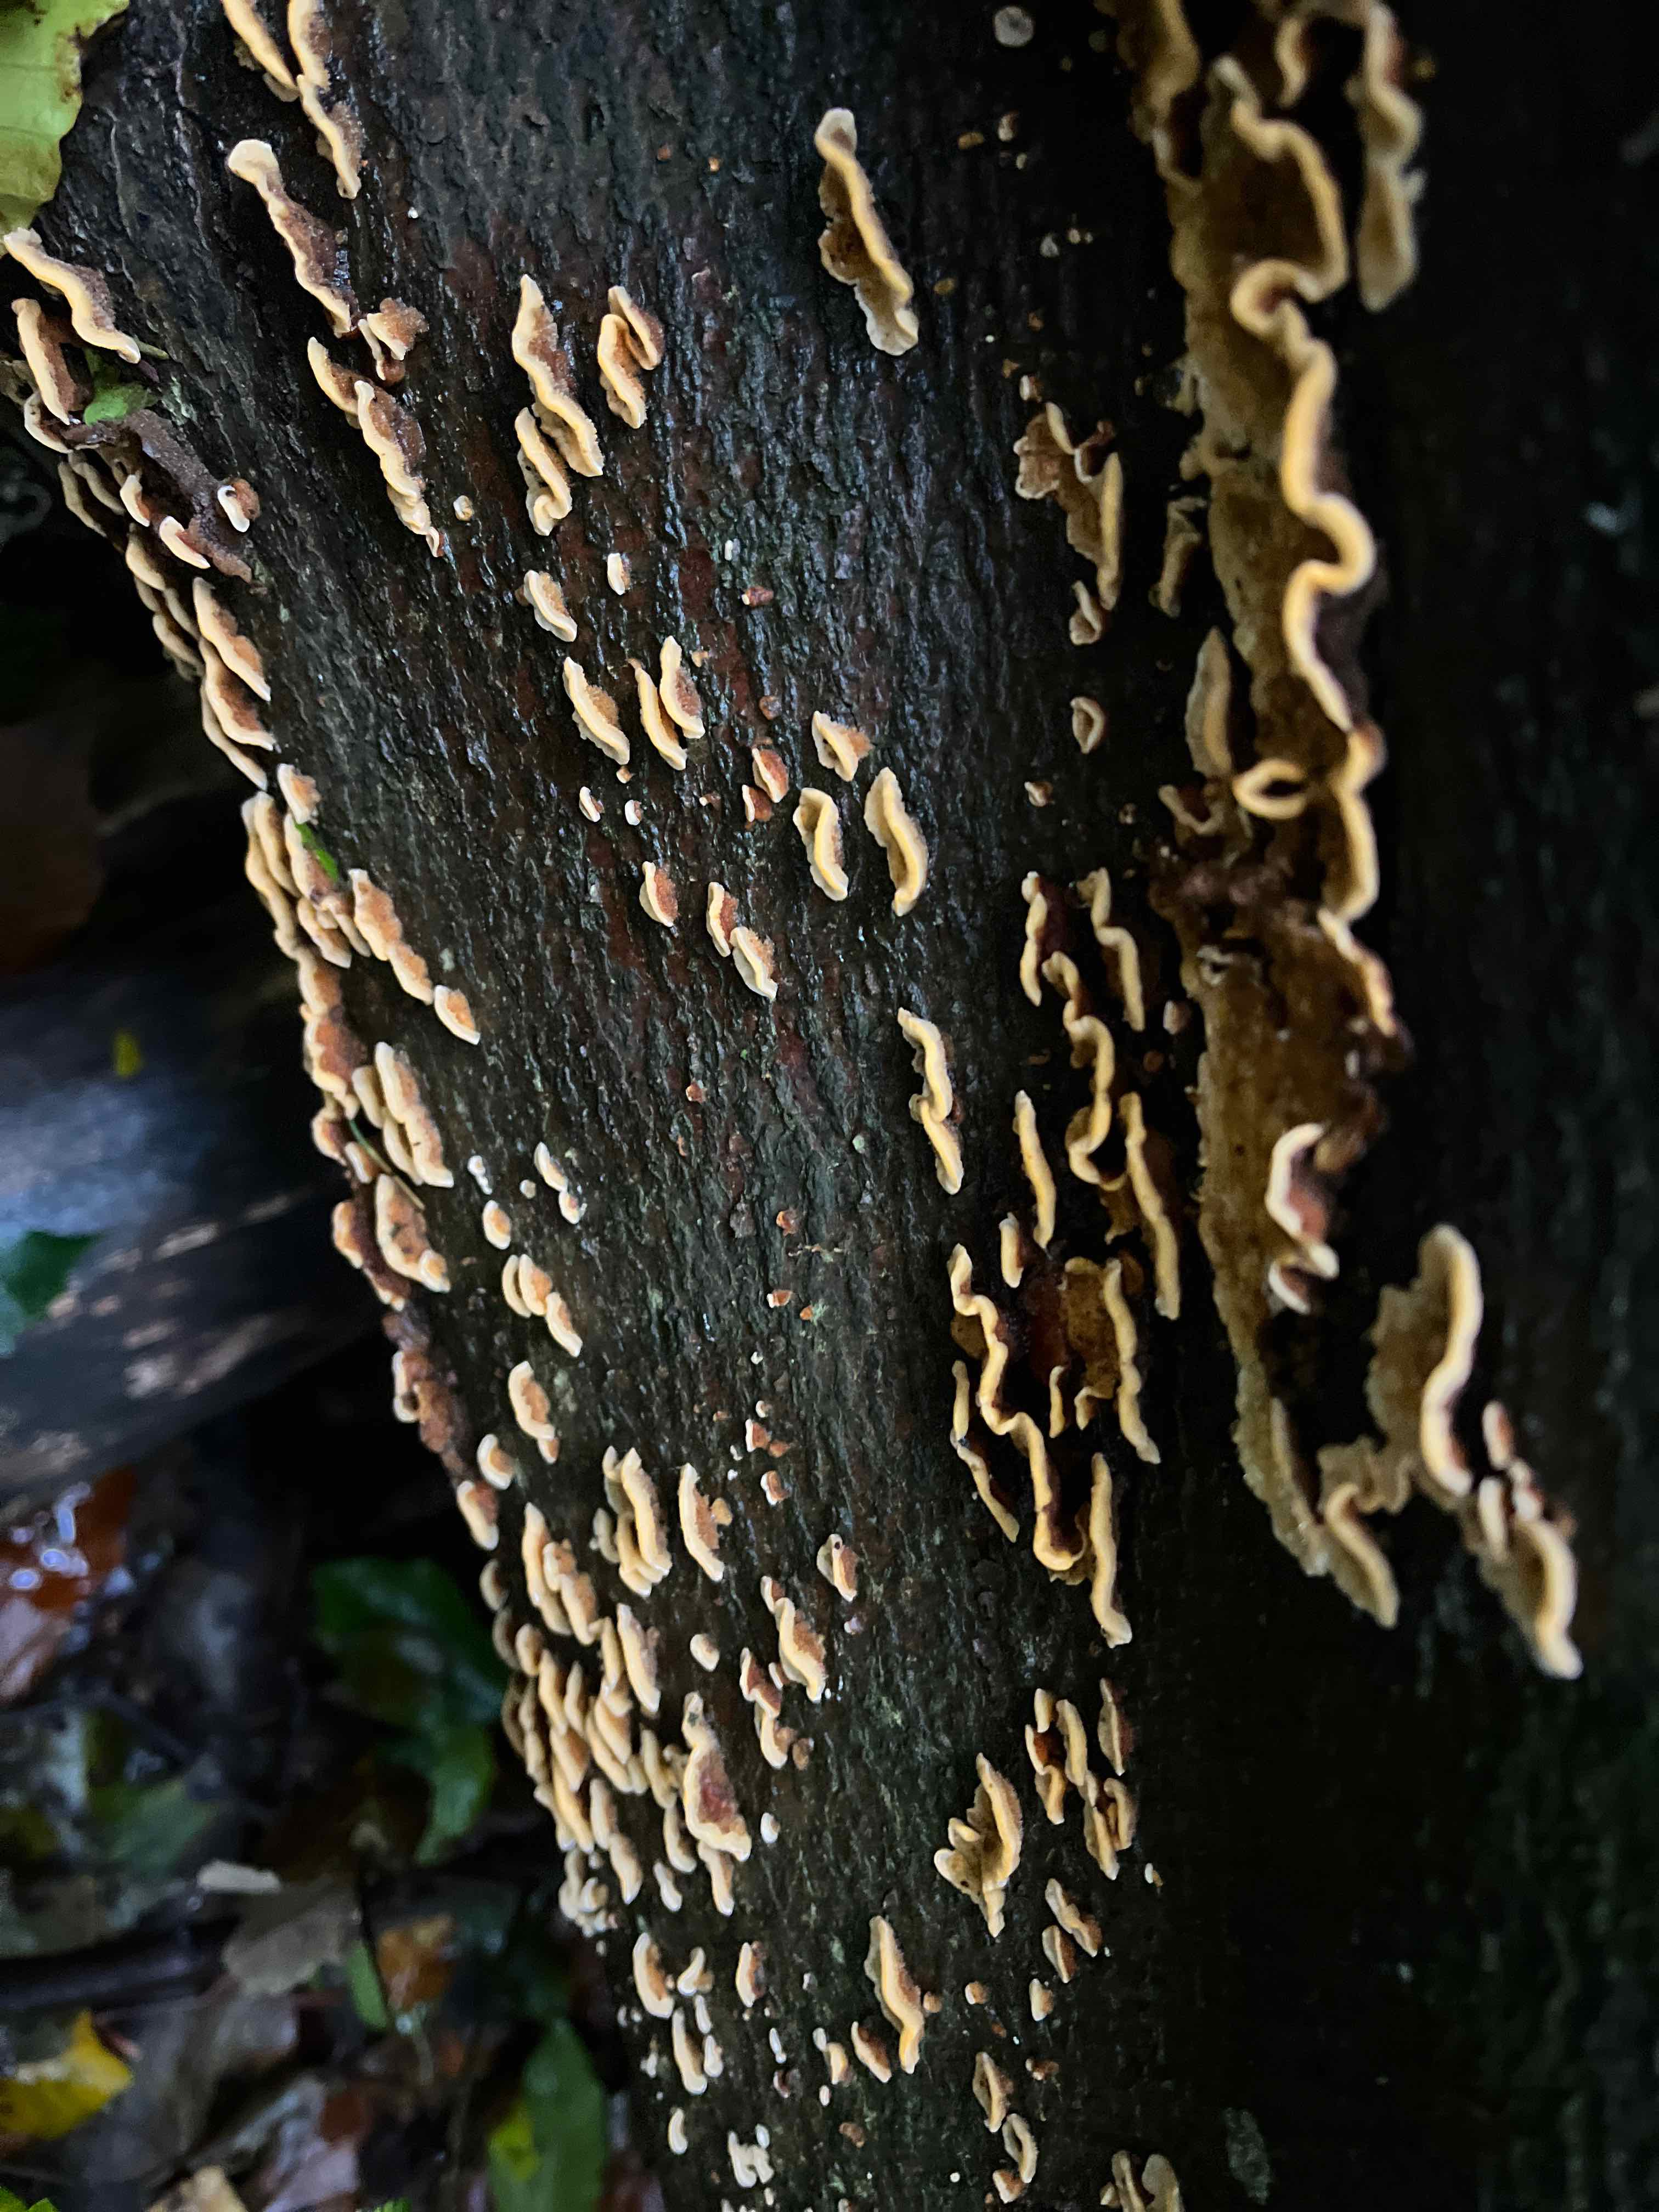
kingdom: Fungi
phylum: Basidiomycota
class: Agaricomycetes
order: Russulales
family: Stereaceae
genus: Stereum
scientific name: Stereum
